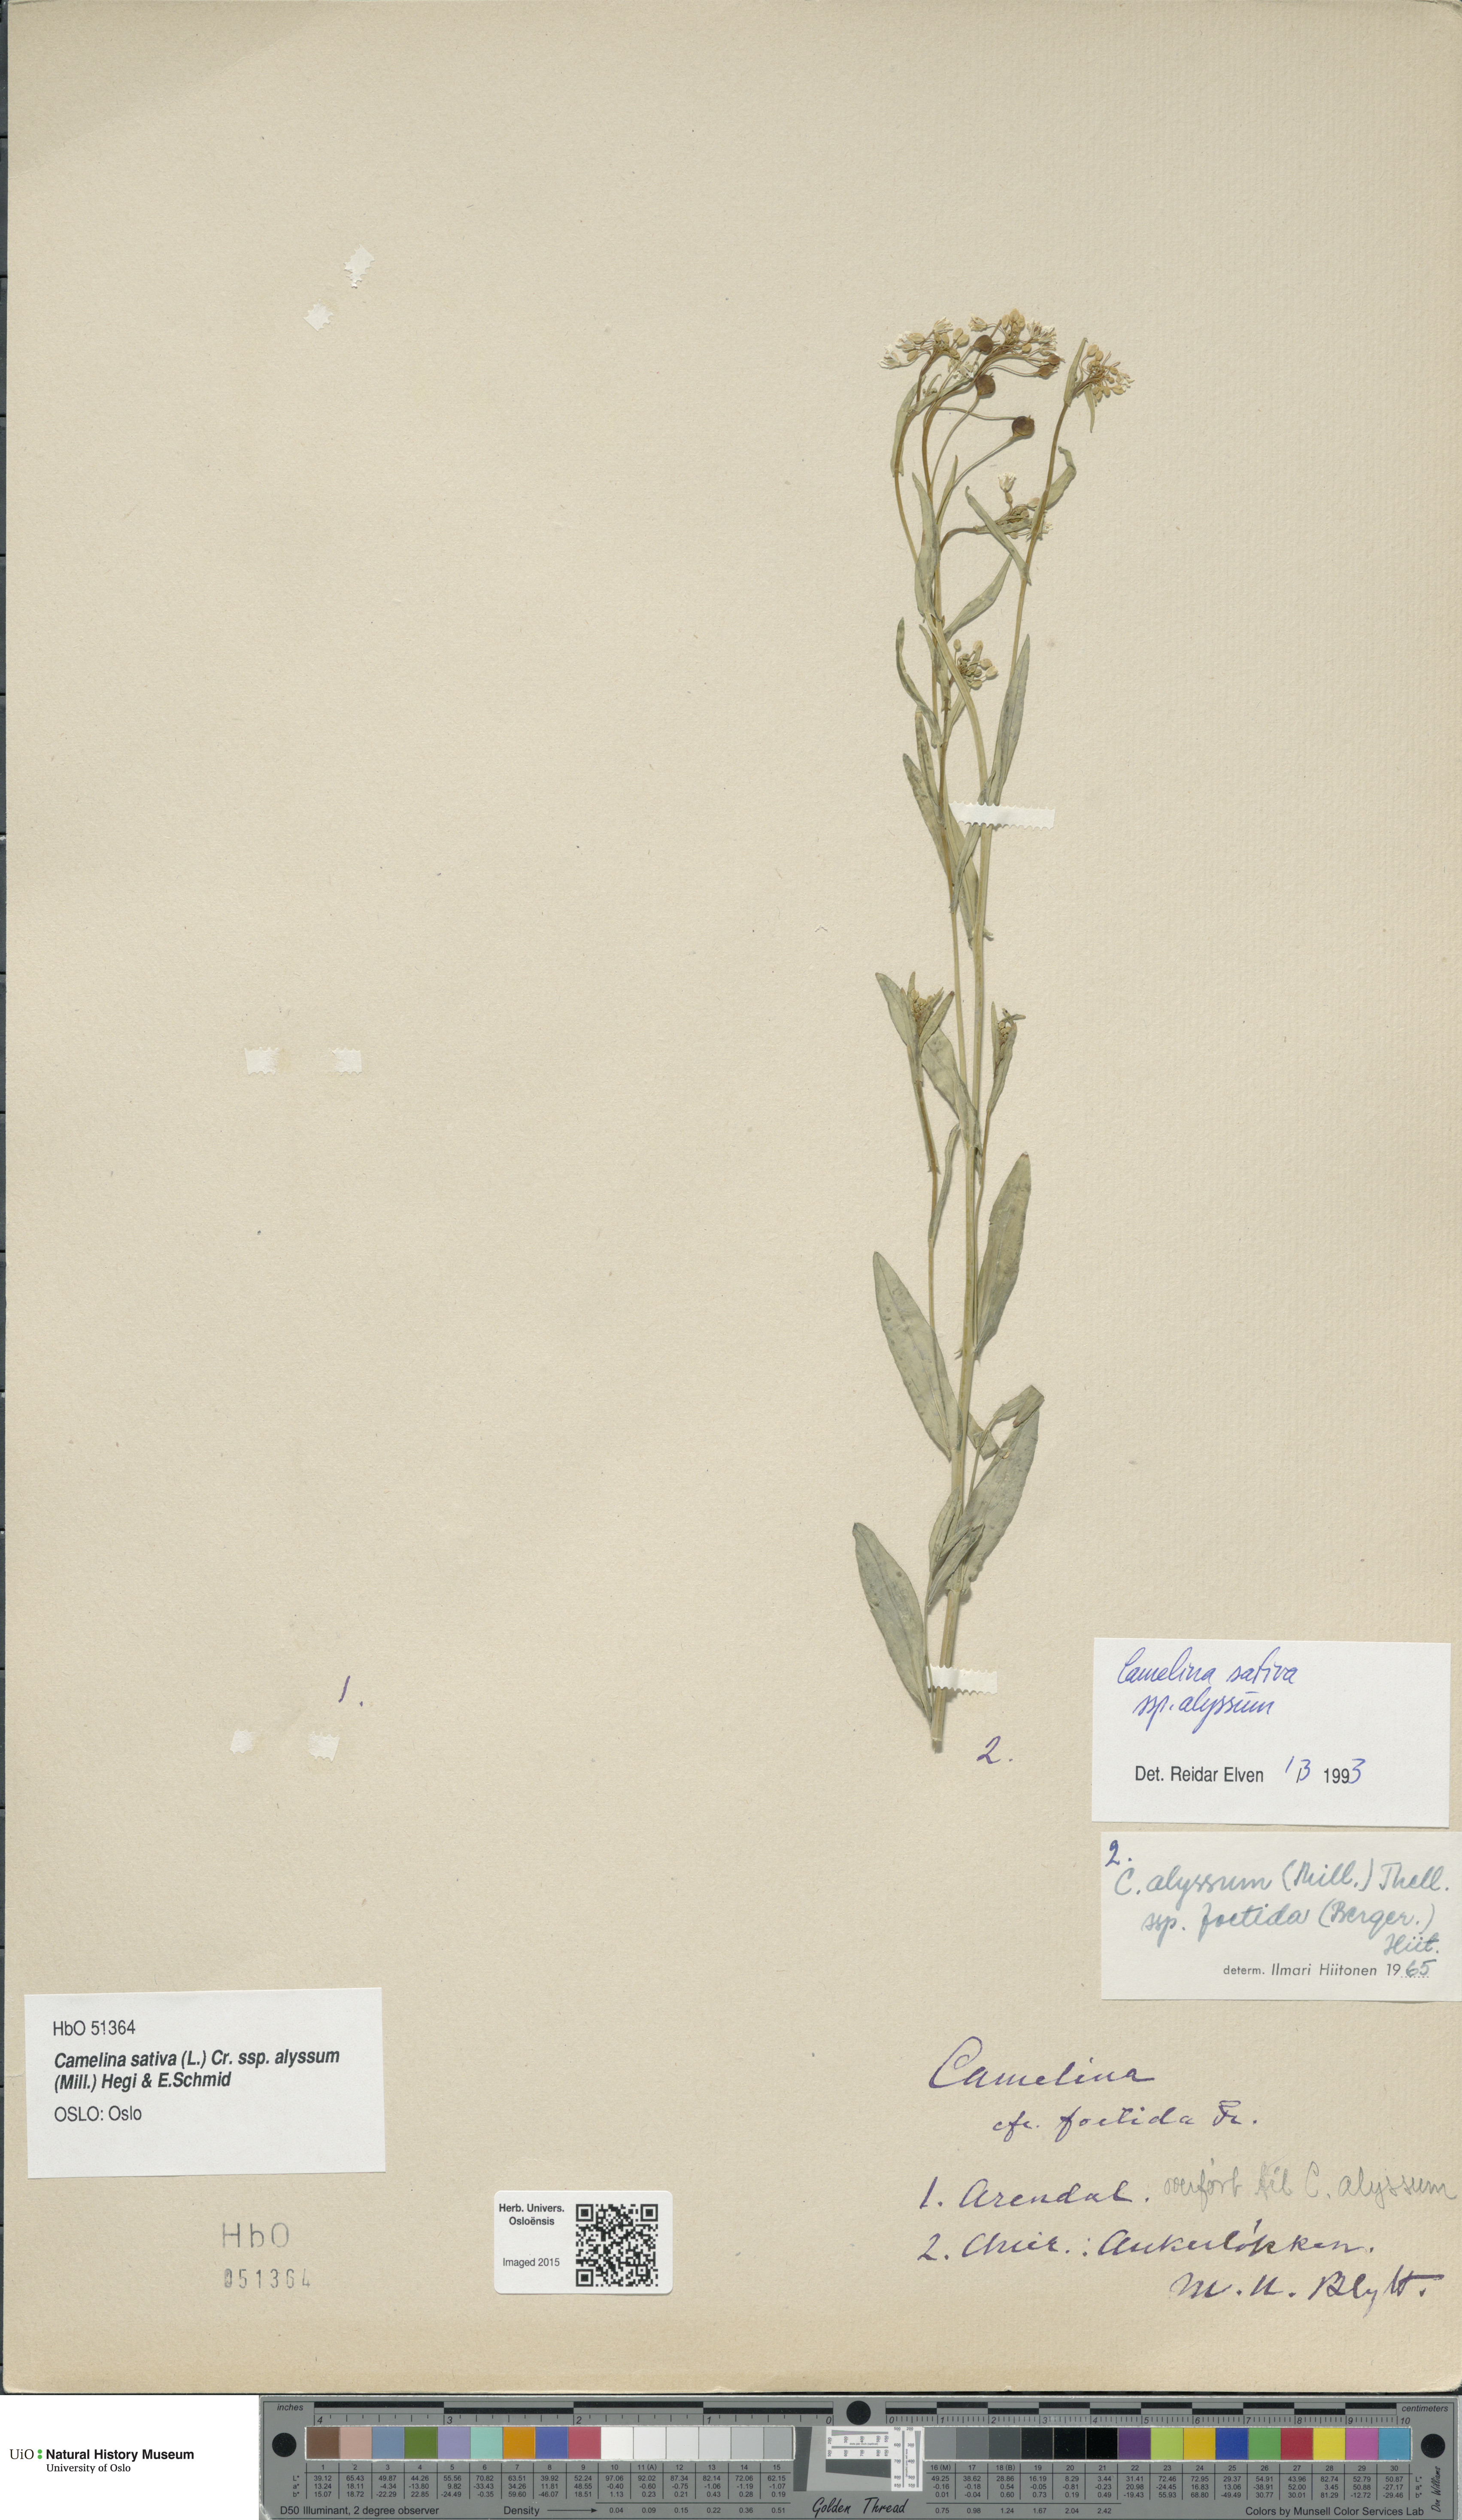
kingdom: Plantae
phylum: Tracheophyta
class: Magnoliopsida
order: Brassicales
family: Brassicaceae
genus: Camelina
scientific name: Camelina alyssum
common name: Gold-of-pleasure
